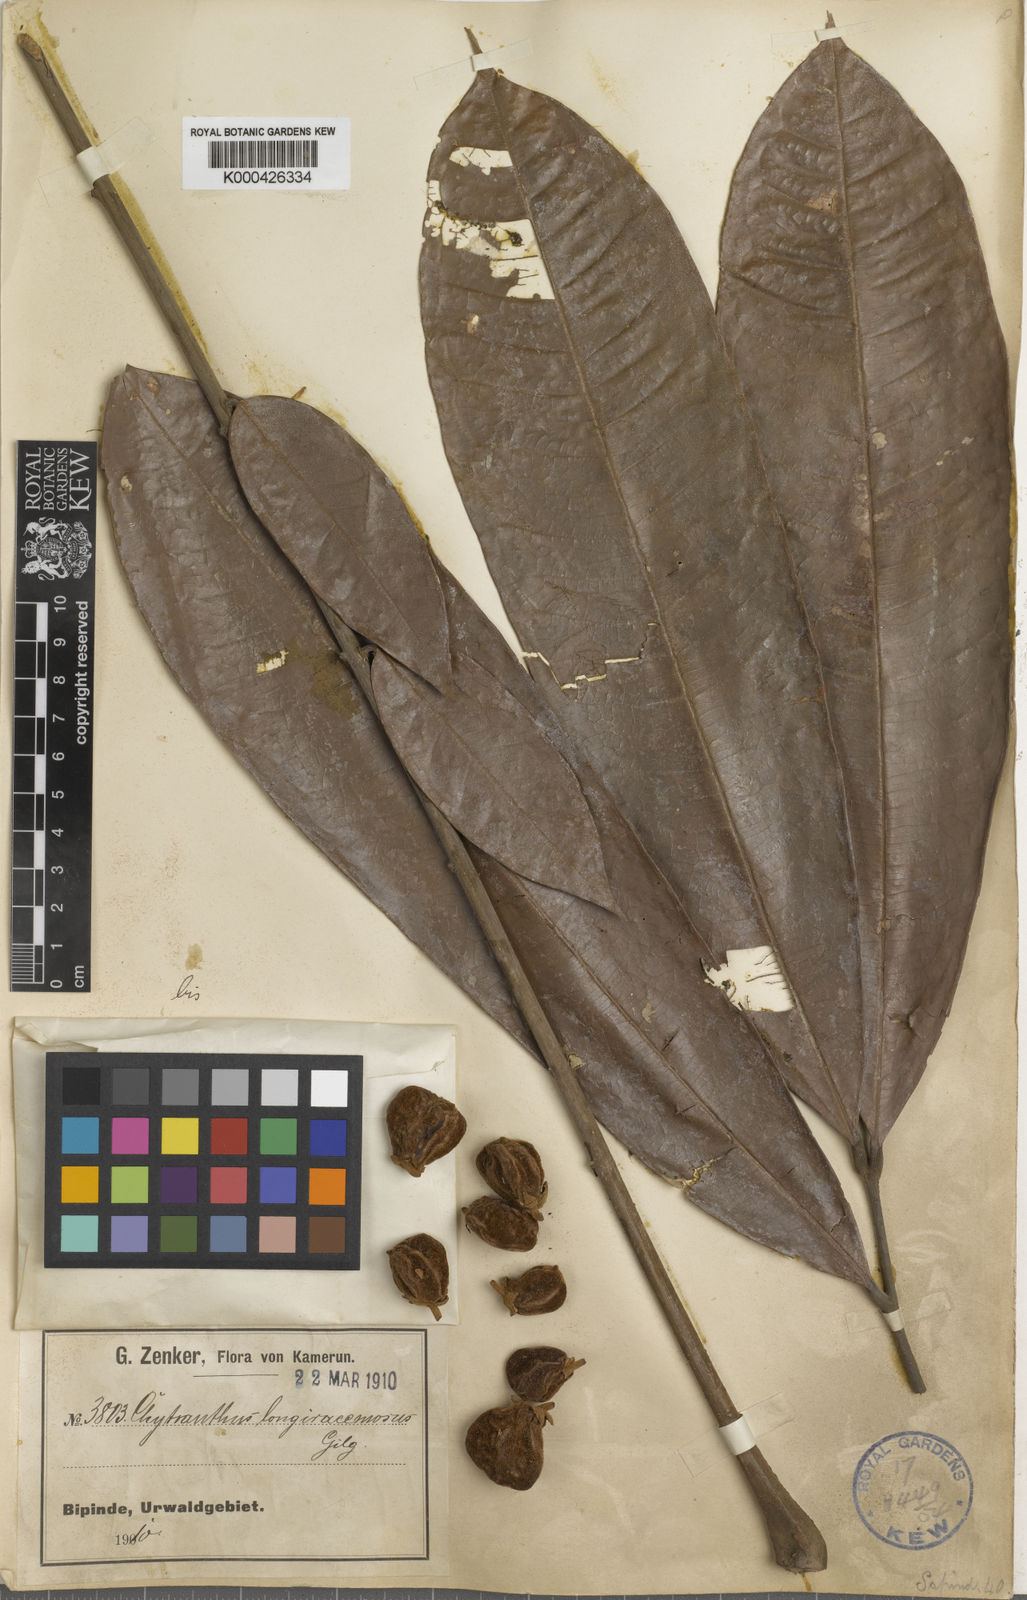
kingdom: Plantae
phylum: Tracheophyta
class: Magnoliopsida
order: Sapindales
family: Sapindaceae
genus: Chytranthus
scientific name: Chytranthus carneus
